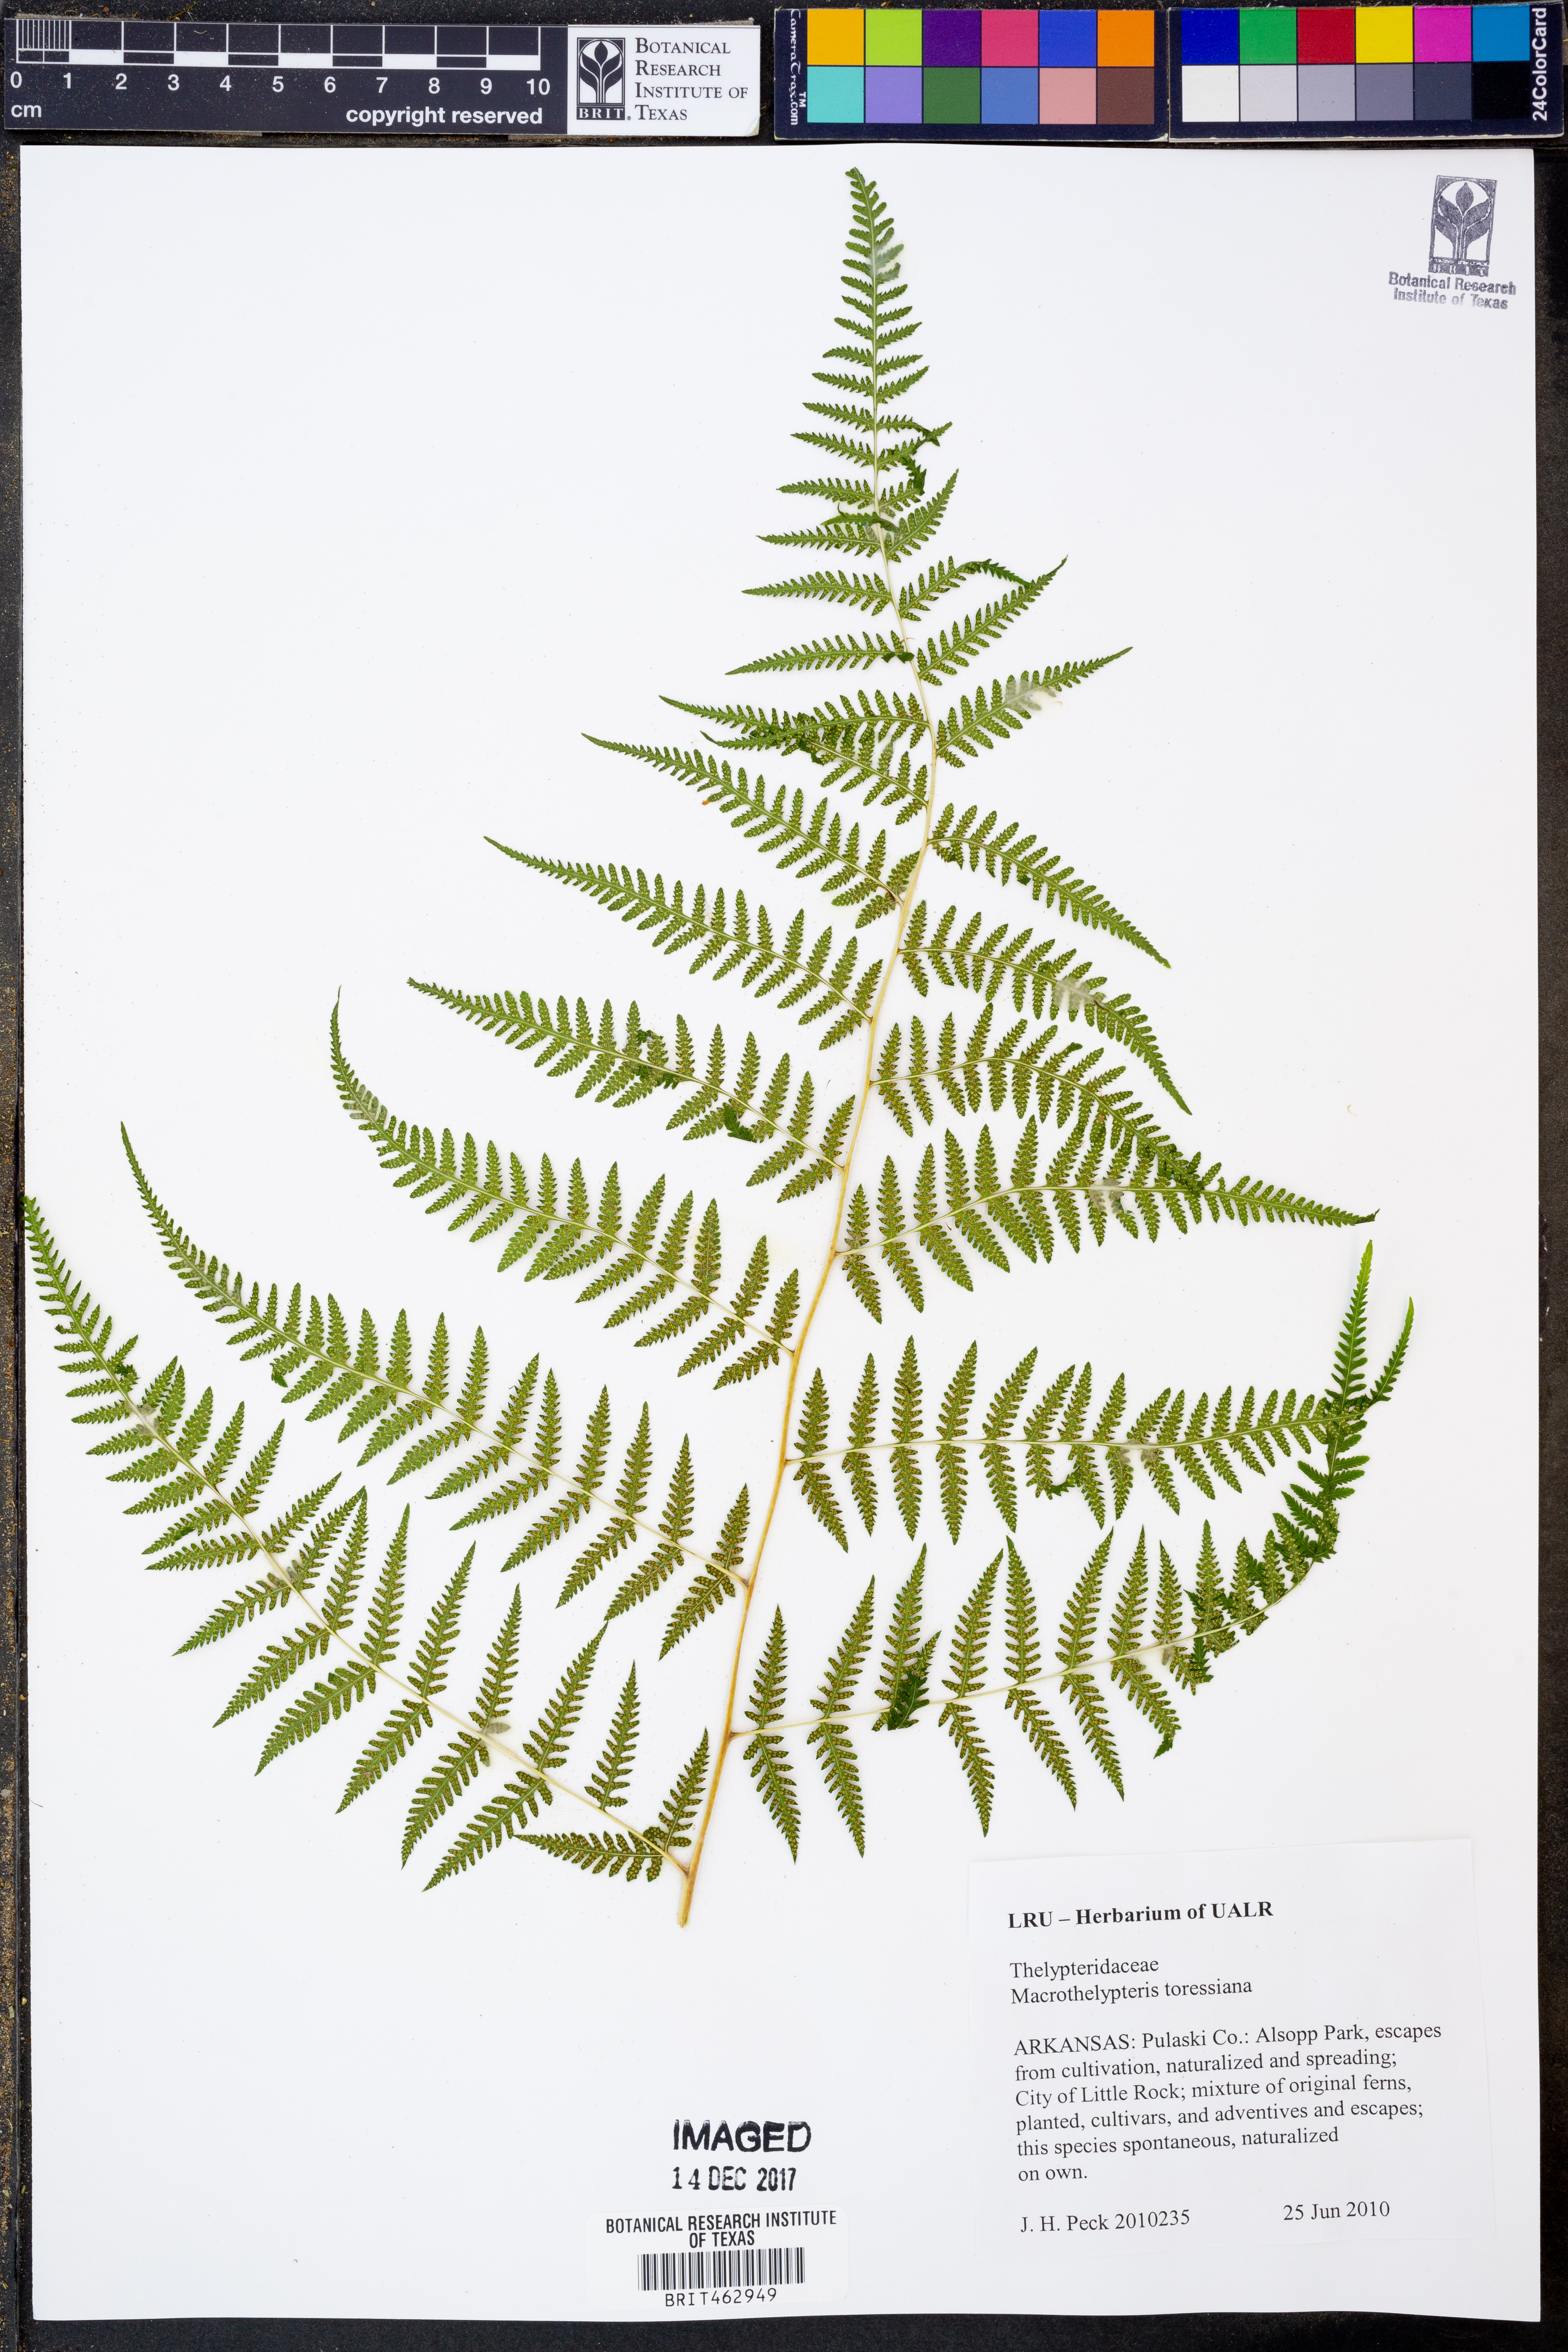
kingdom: Plantae
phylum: Tracheophyta
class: Polypodiopsida
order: Polypodiales
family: Thelypteridaceae
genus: Macrothelypteris
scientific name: Macrothelypteris torresiana
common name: Swordfern
